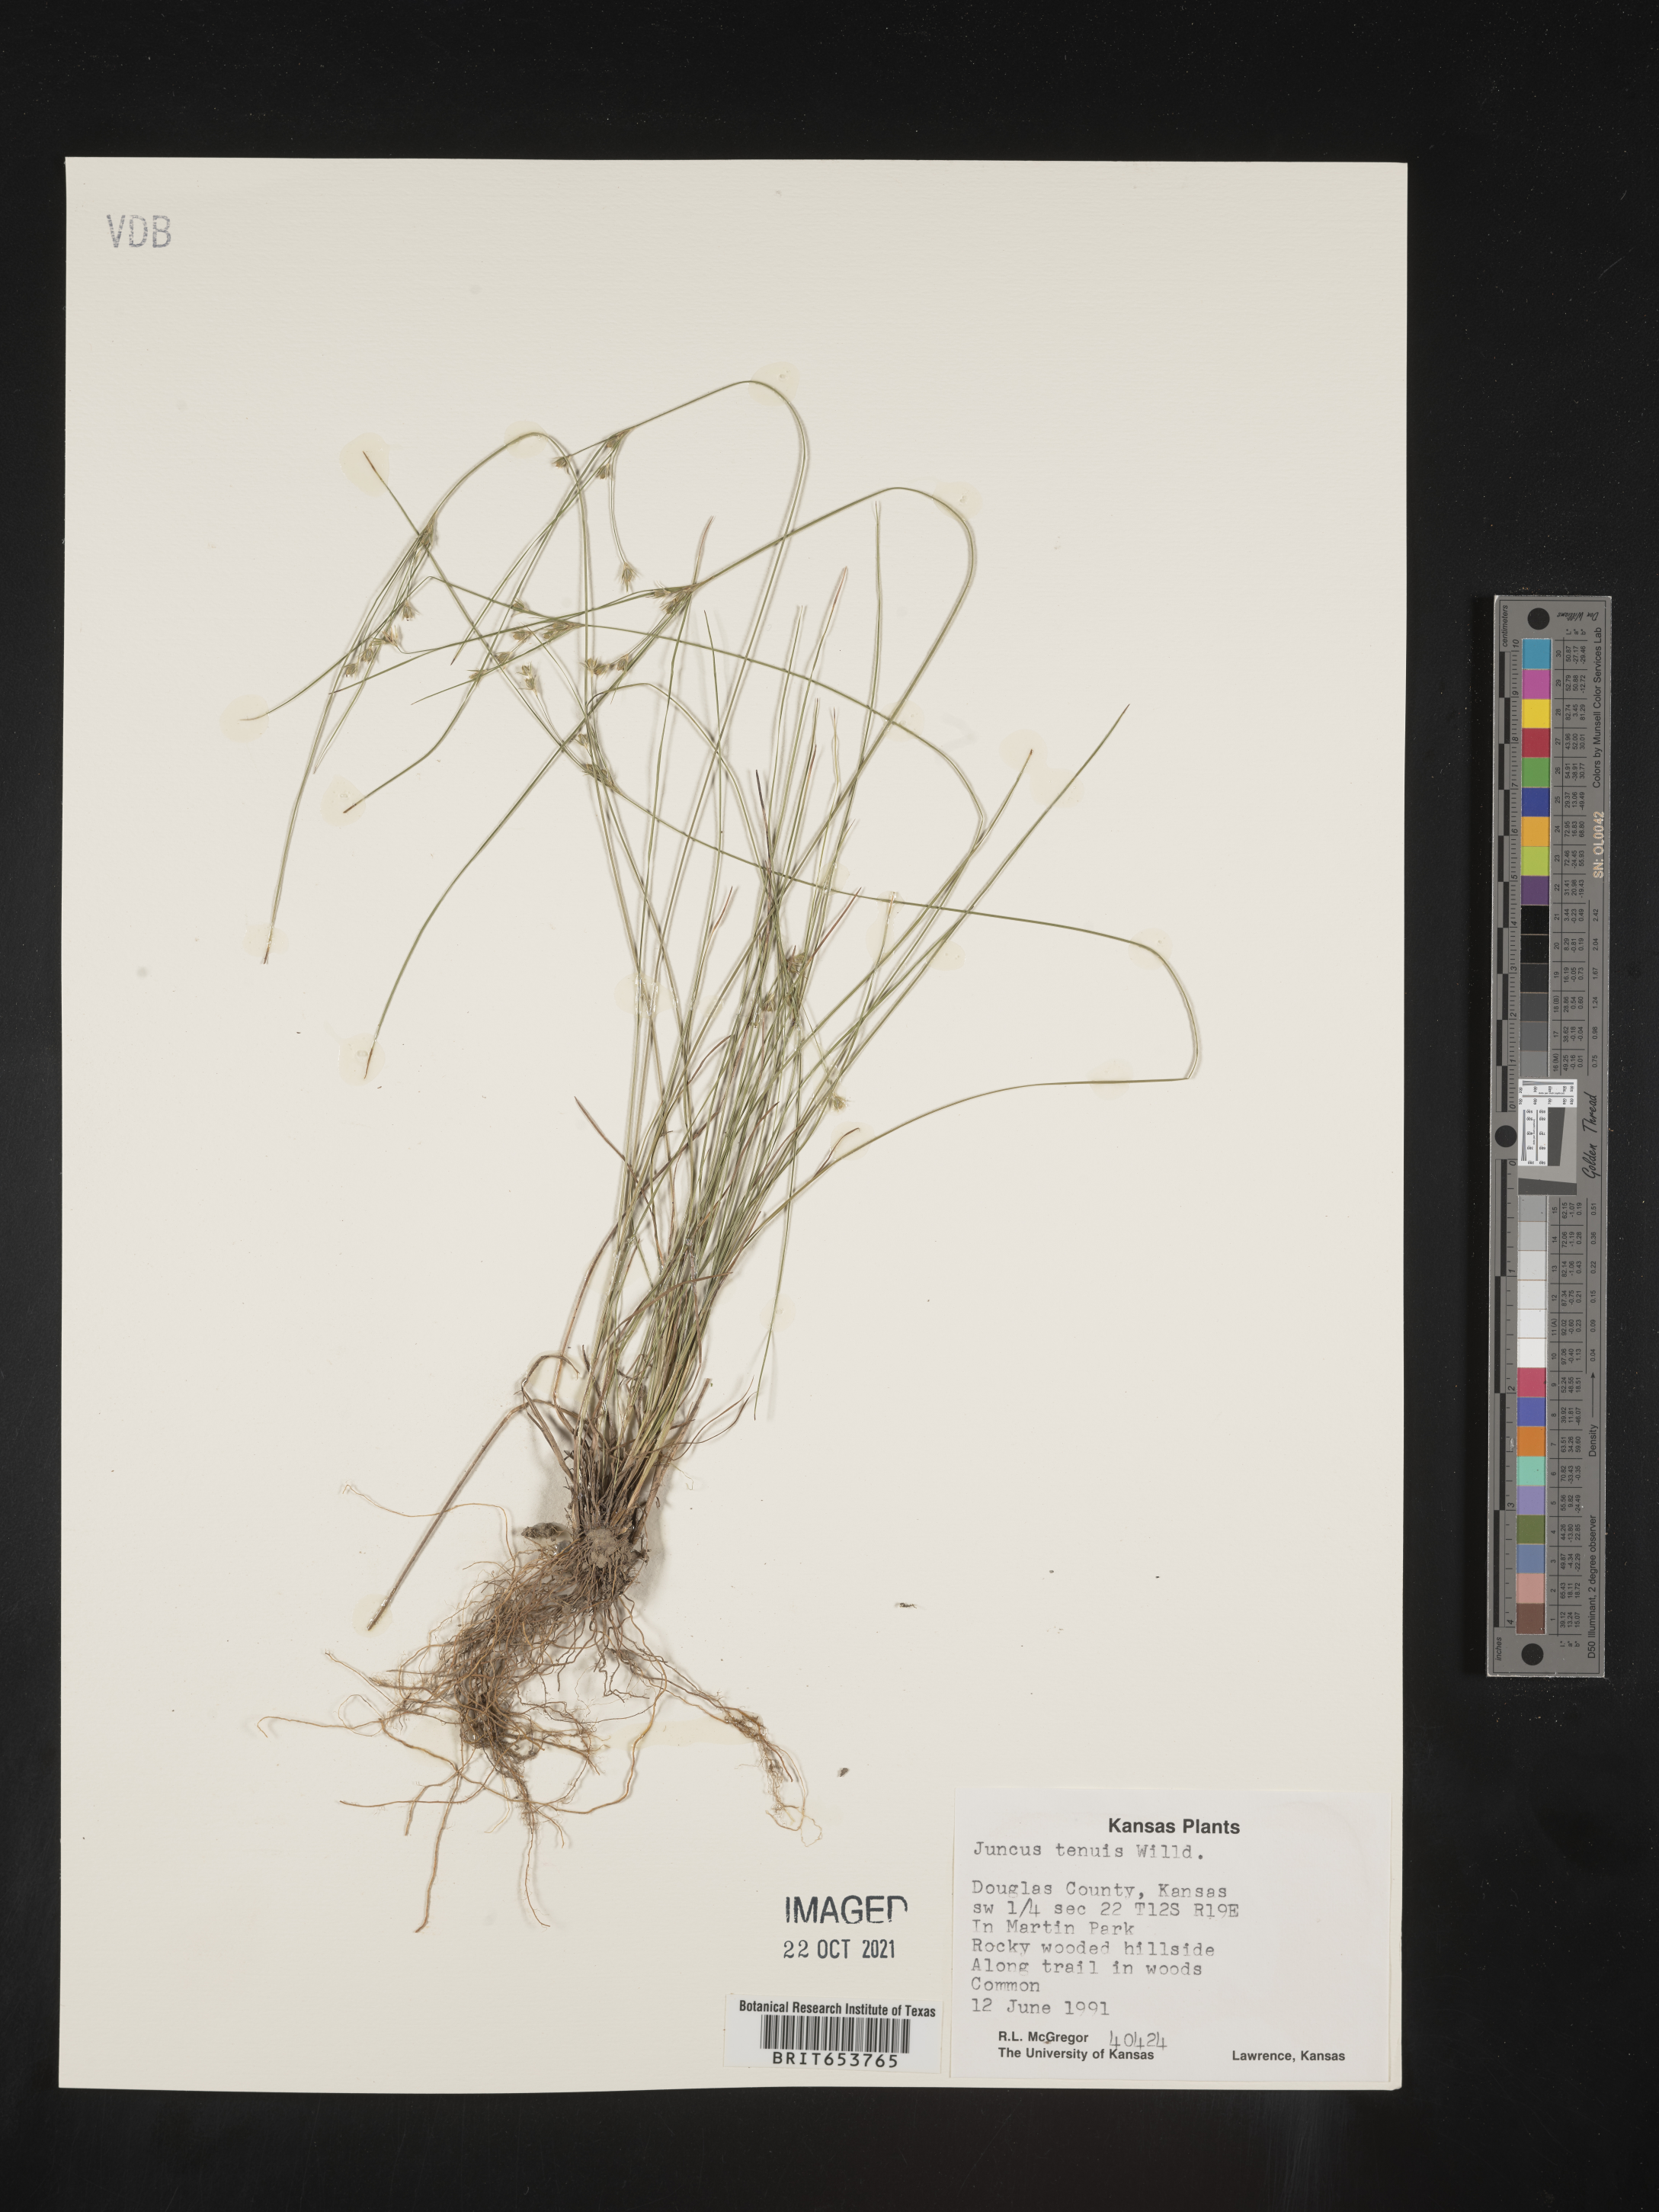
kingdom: Plantae
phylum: Tracheophyta
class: Liliopsida
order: Poales
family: Juncaceae
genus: Juncus
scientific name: Juncus tenuis
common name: Slender rush
